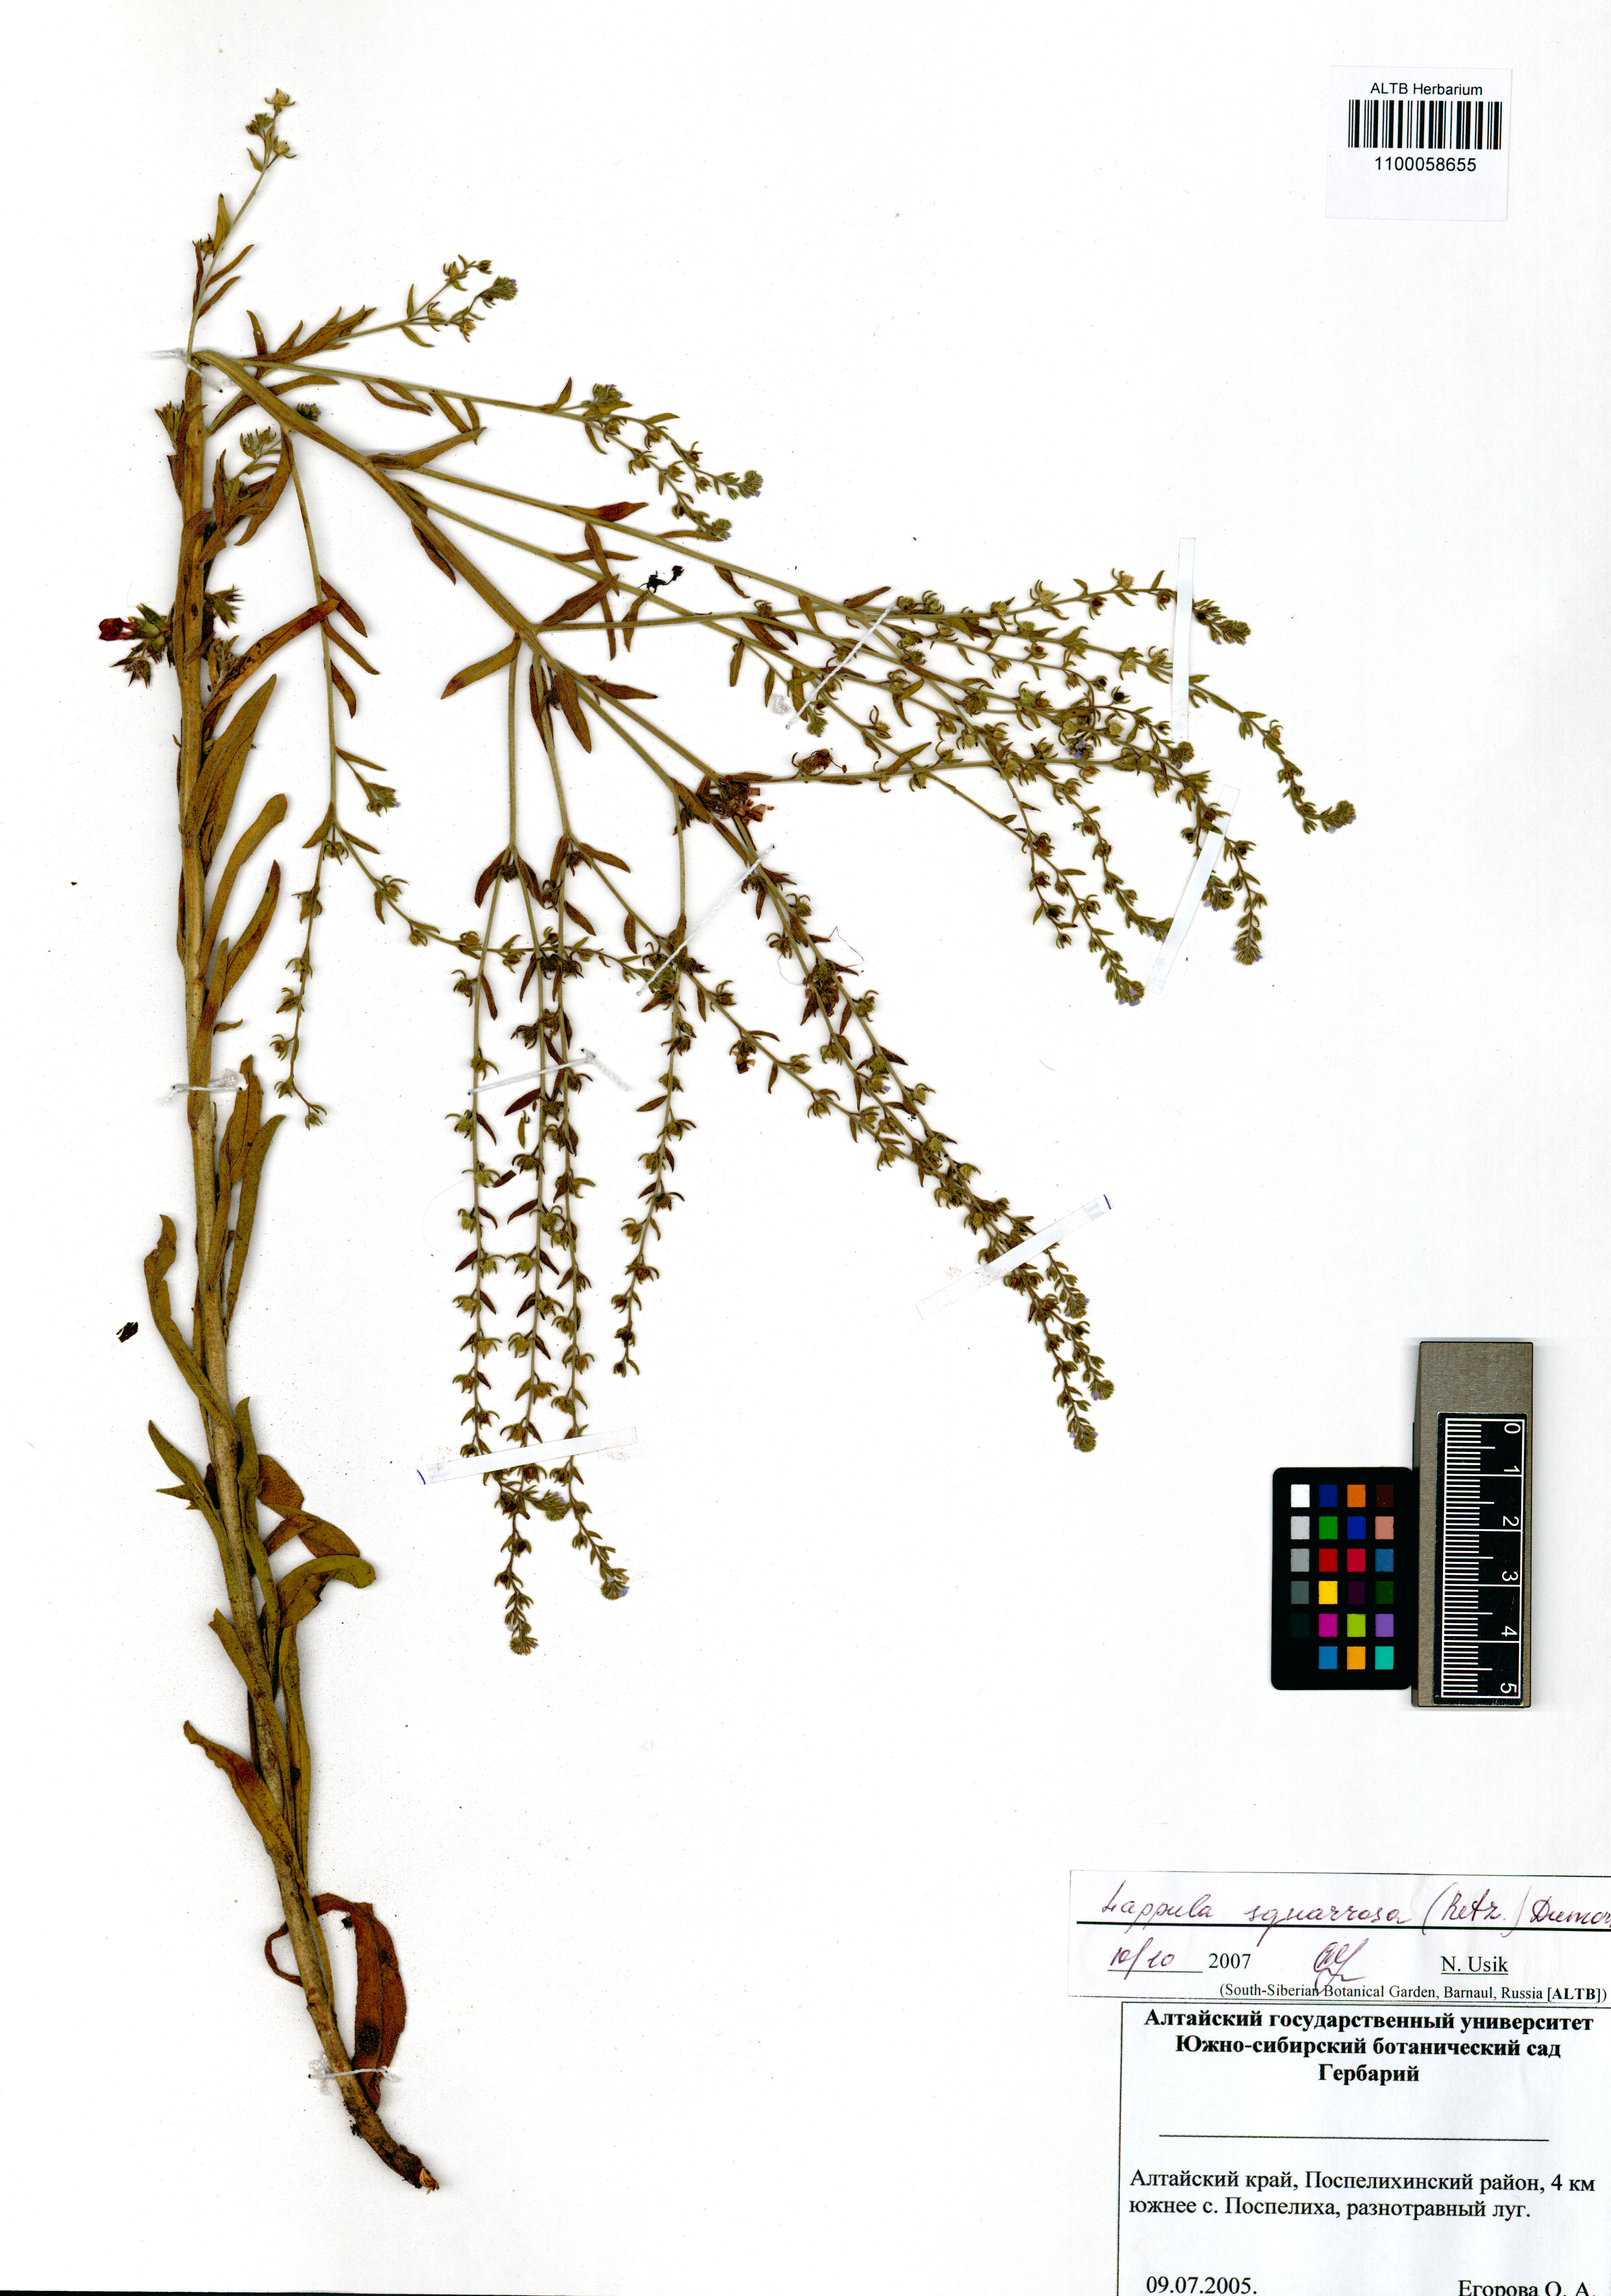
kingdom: Plantae
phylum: Tracheophyta
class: Magnoliopsida
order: Boraginales
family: Boraginaceae
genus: Lappula
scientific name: Lappula squarrosa
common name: European stickseed
